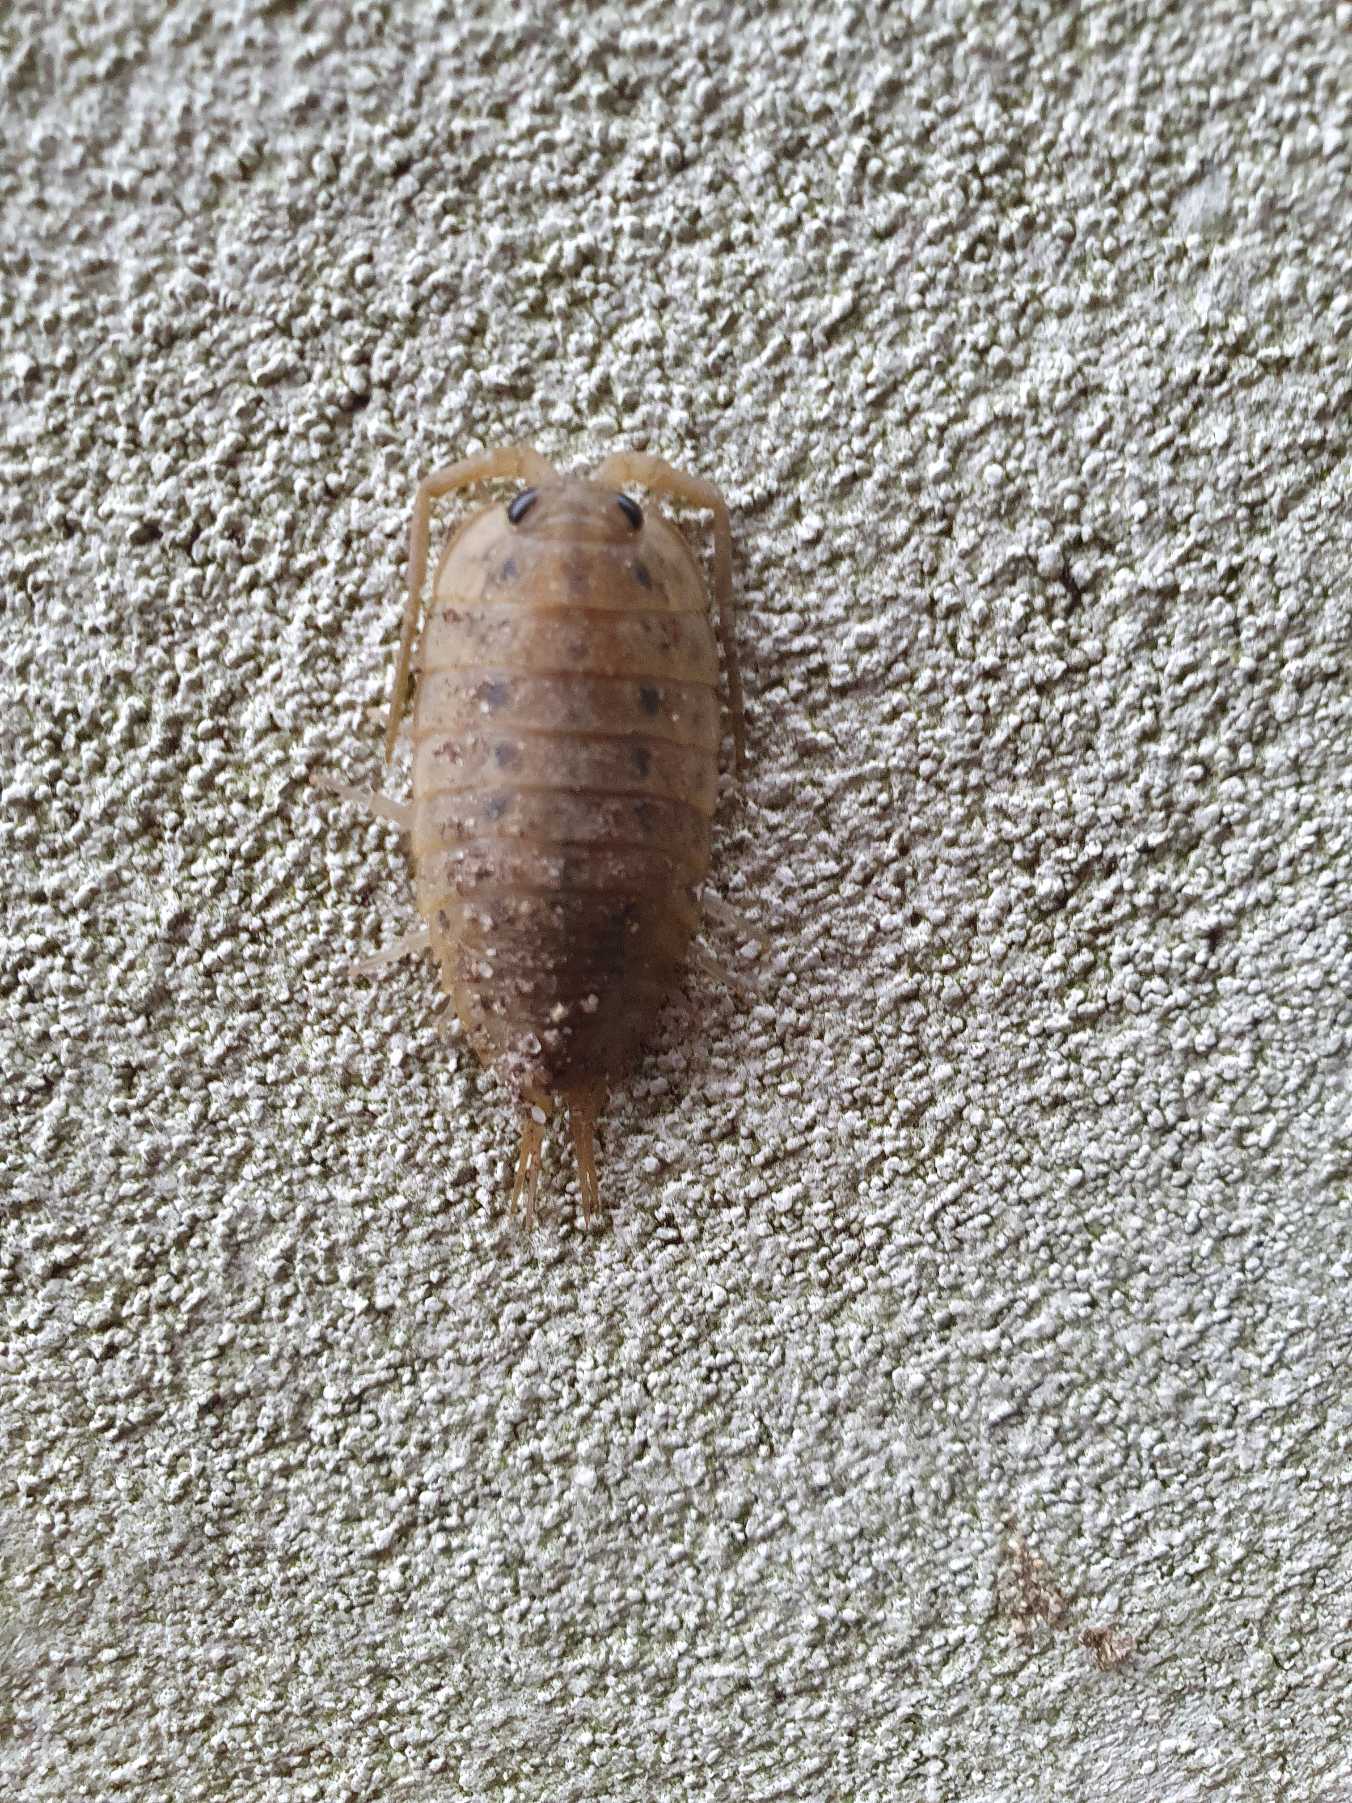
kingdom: Animalia
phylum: Arthropoda
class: Malacostraca
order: Isopoda
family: Ligiidae
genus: Ligia
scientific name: Ligia oceanica
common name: Havbænkebider
